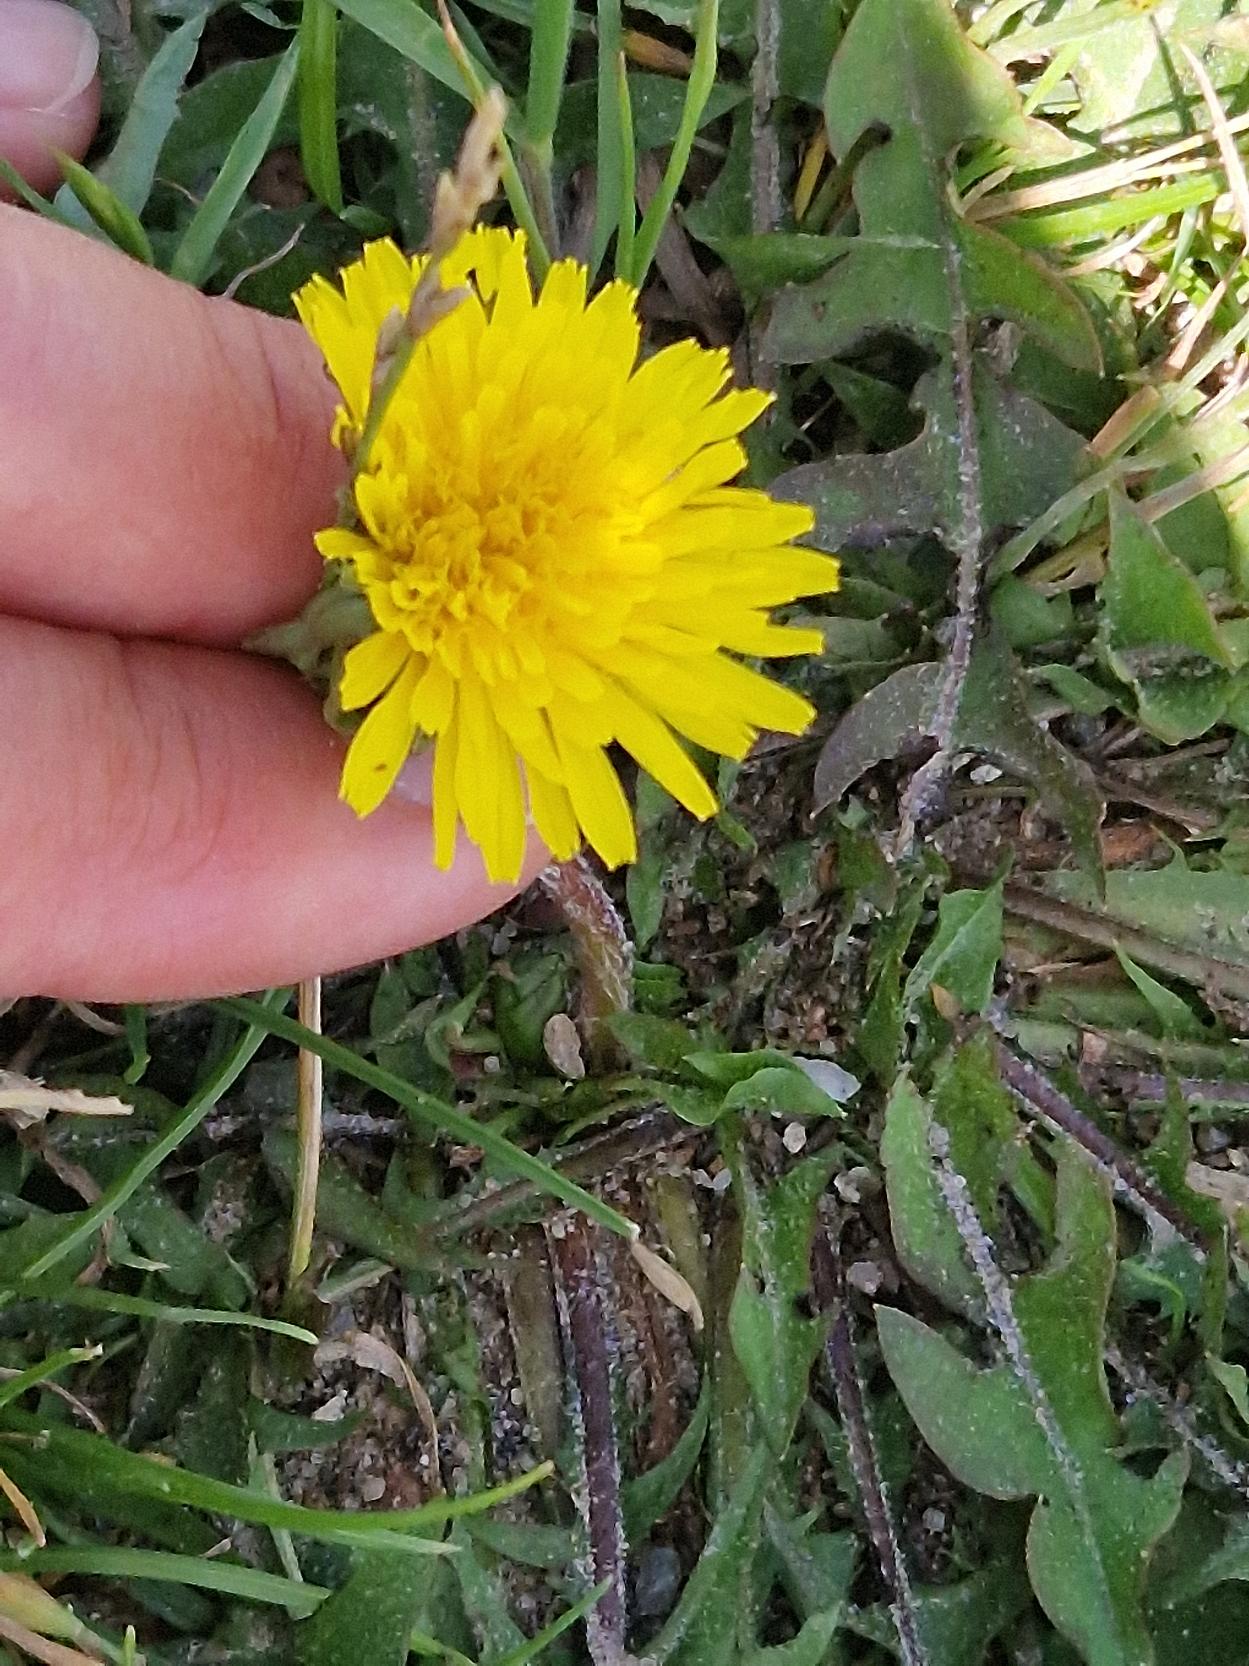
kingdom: Plantae
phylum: Tracheophyta
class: Magnoliopsida
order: Asterales
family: Asteraceae
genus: Taraxacum
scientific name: Taraxacum
